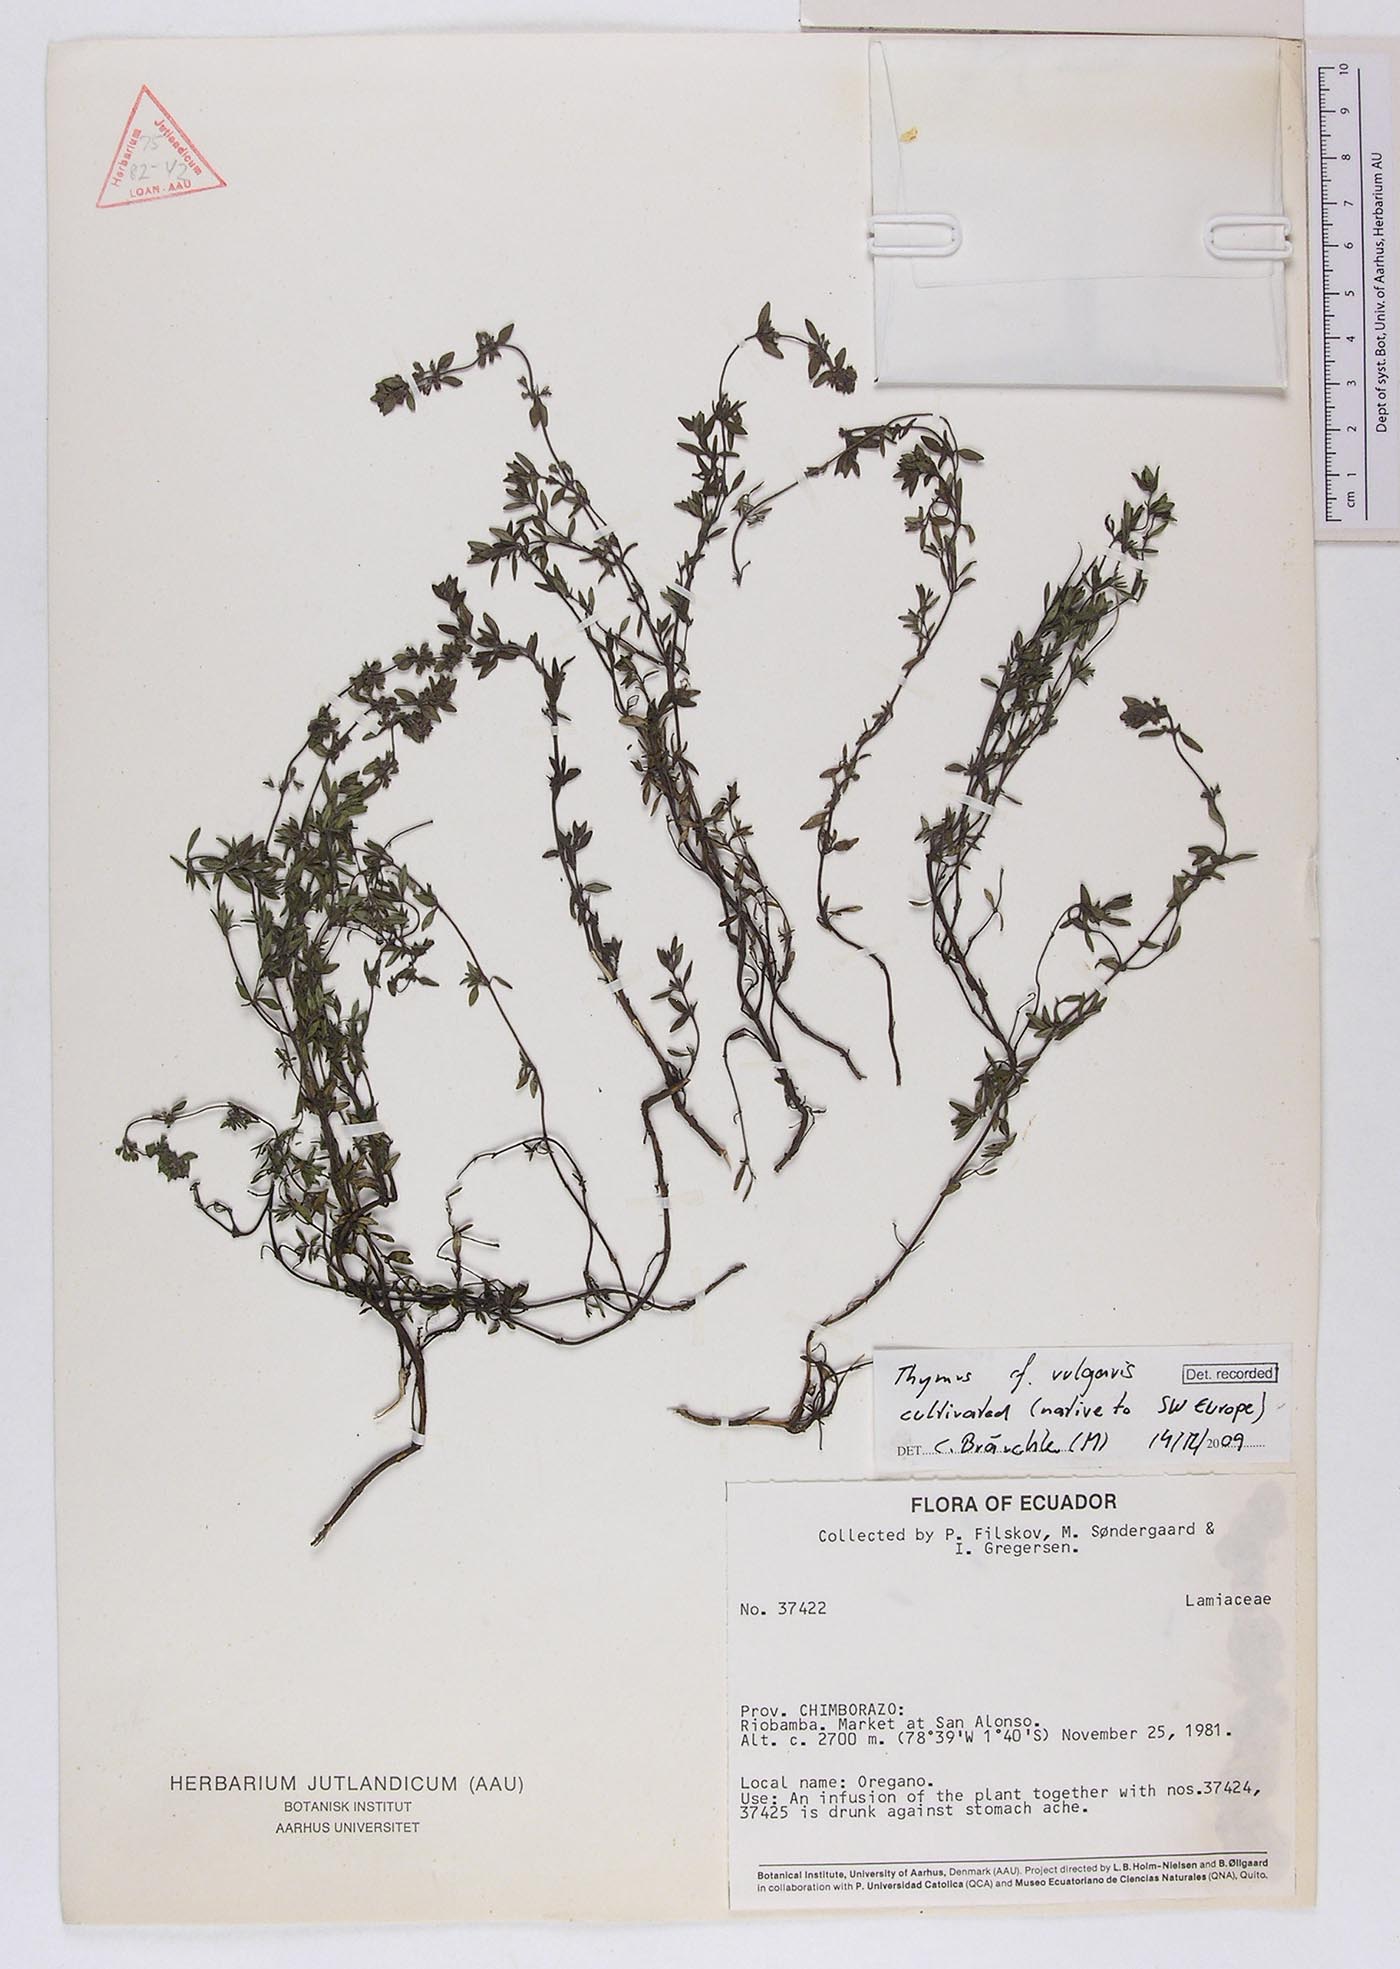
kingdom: Plantae
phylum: Tracheophyta
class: Magnoliopsida
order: Lamiales
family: Lamiaceae
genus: Thymus
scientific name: Thymus vulgaris
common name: Garden thyme
